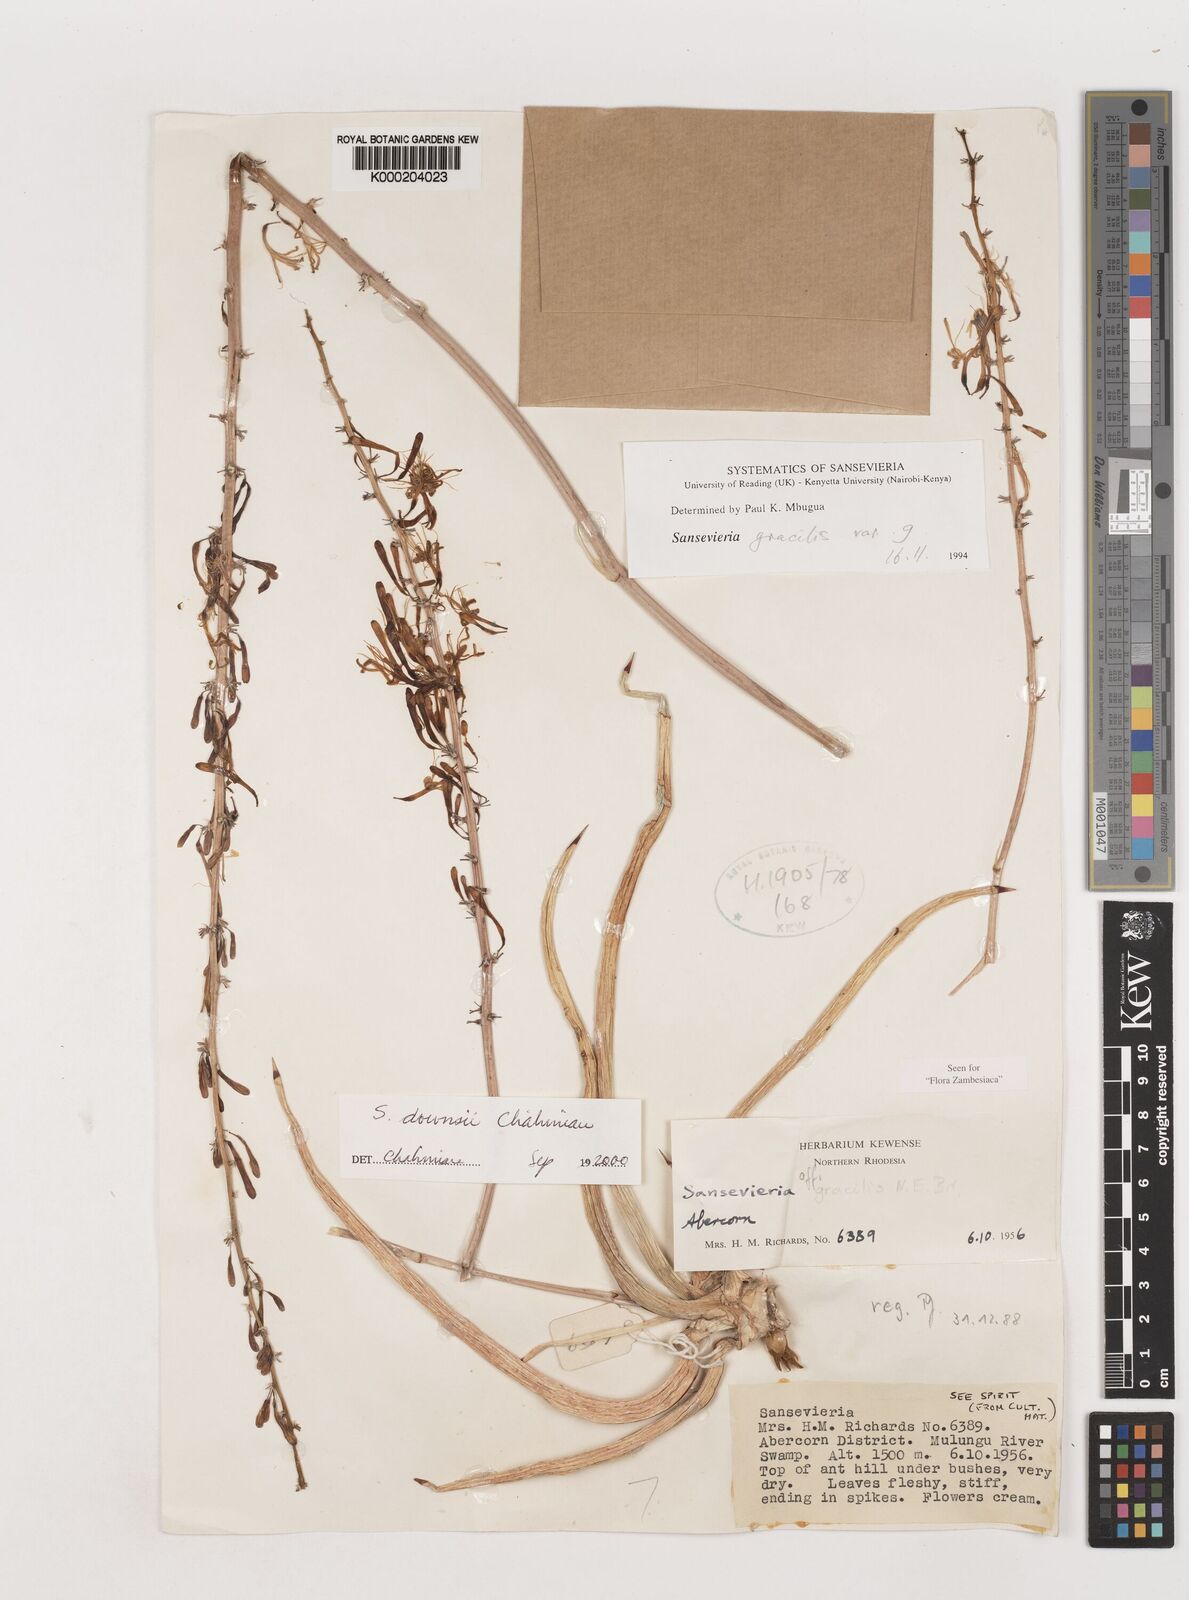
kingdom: Plantae
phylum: Tracheophyta
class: Liliopsida
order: Asparagales
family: Asparagaceae
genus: Dracaena
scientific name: Dracaena downsii
